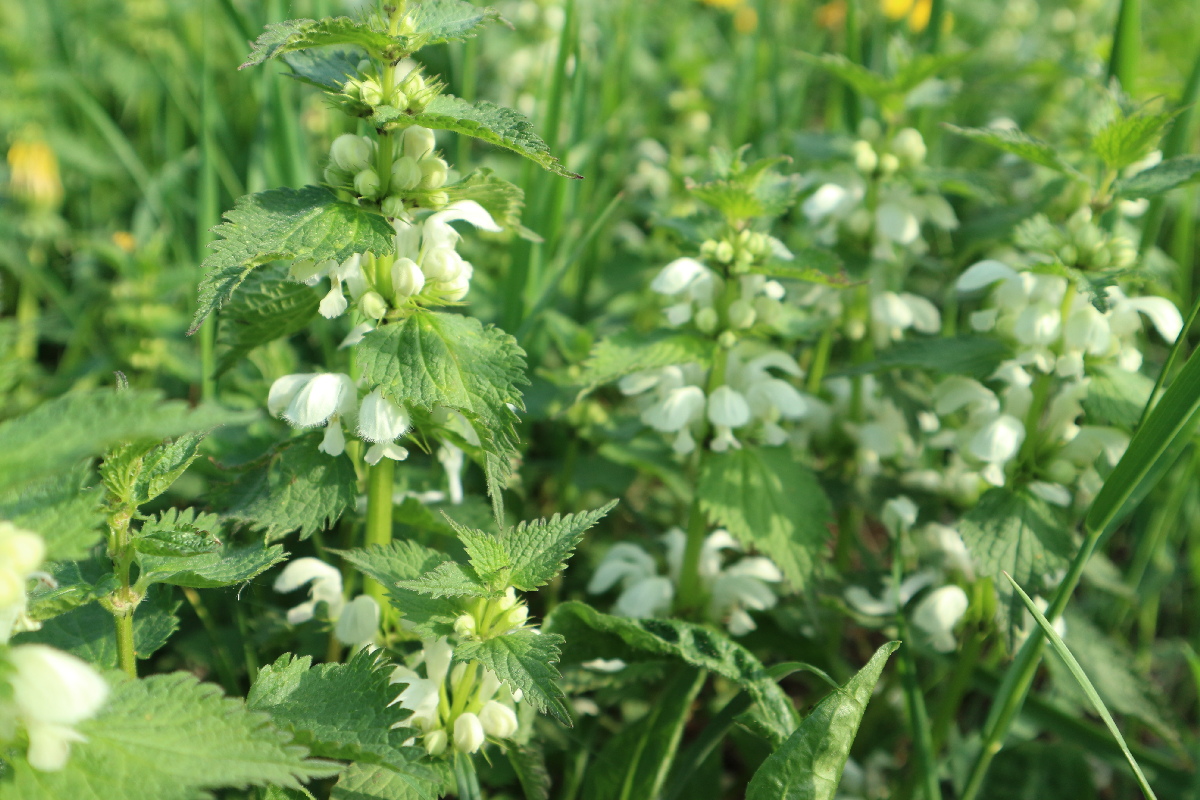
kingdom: Plantae
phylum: Tracheophyta
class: Magnoliopsida
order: Lamiales
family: Lamiaceae
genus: Lamium
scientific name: Lamium album
